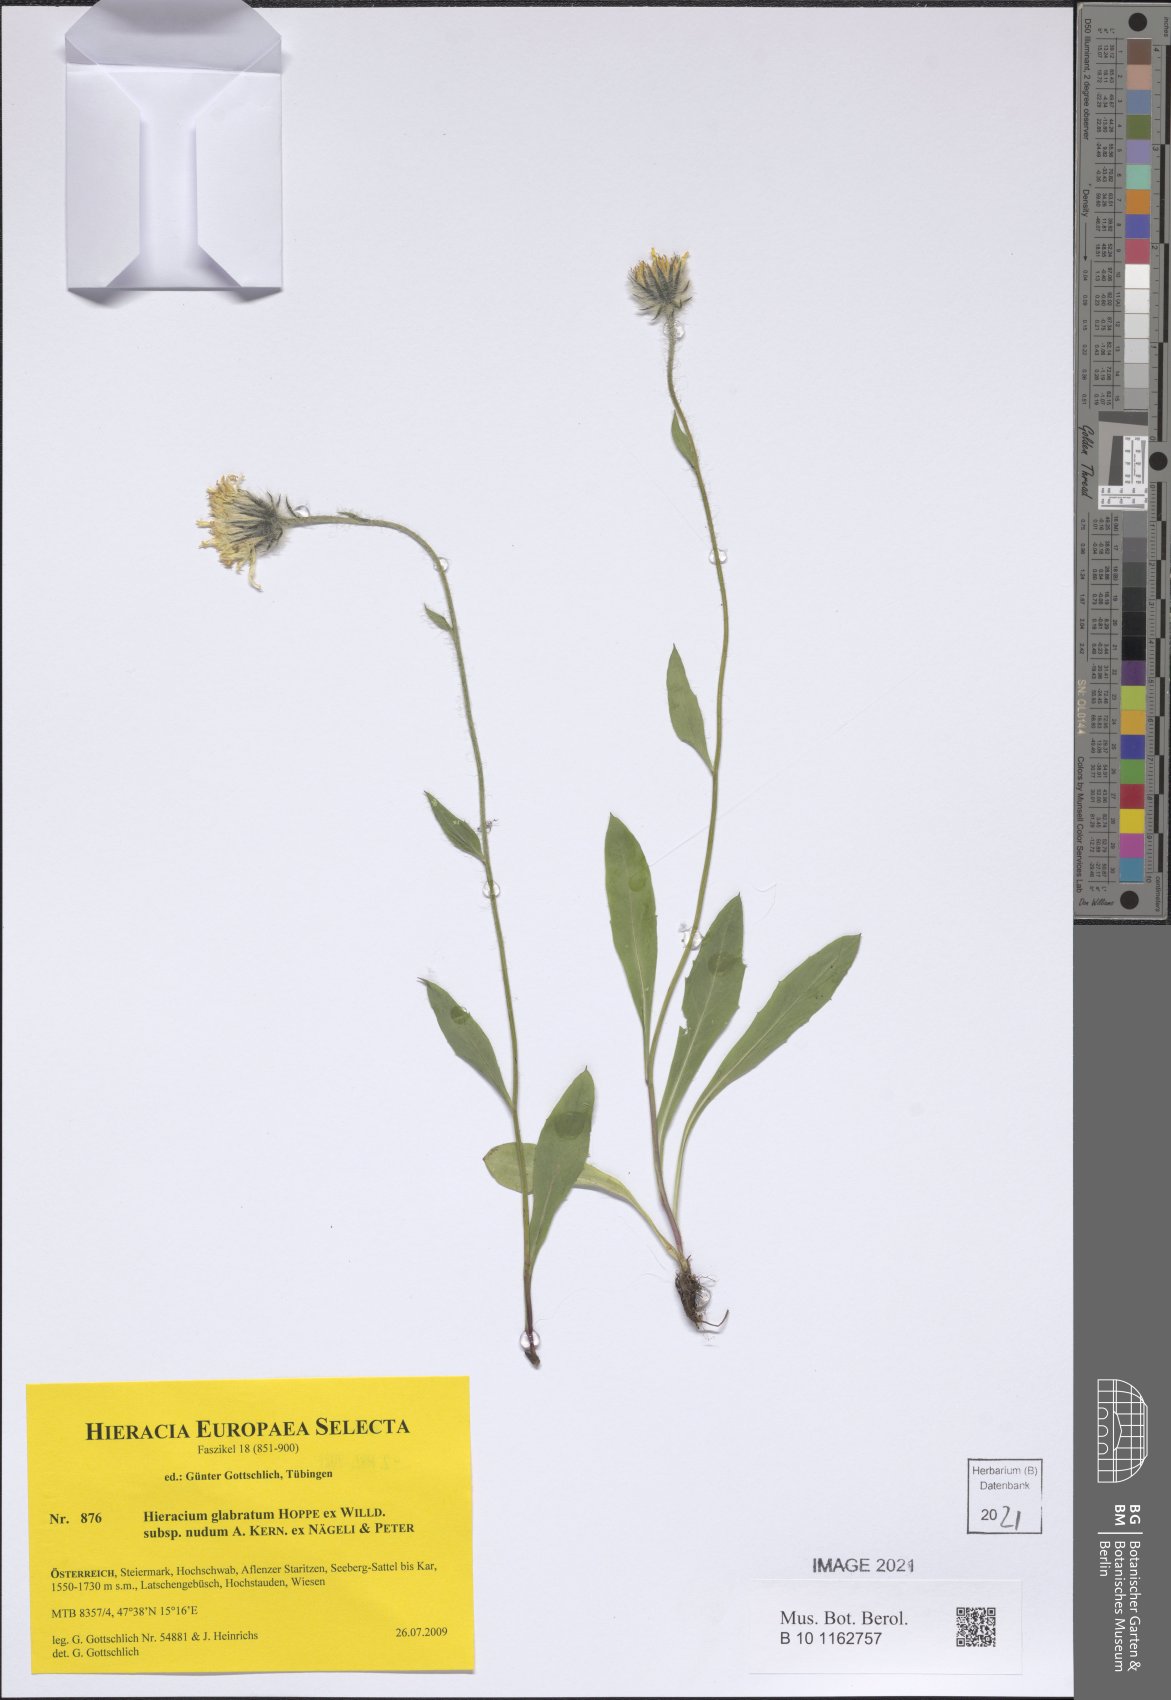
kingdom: Plantae
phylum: Tracheophyta
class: Magnoliopsida
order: Asterales
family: Asteraceae
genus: Hieracium
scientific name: Hieracium glabratum
